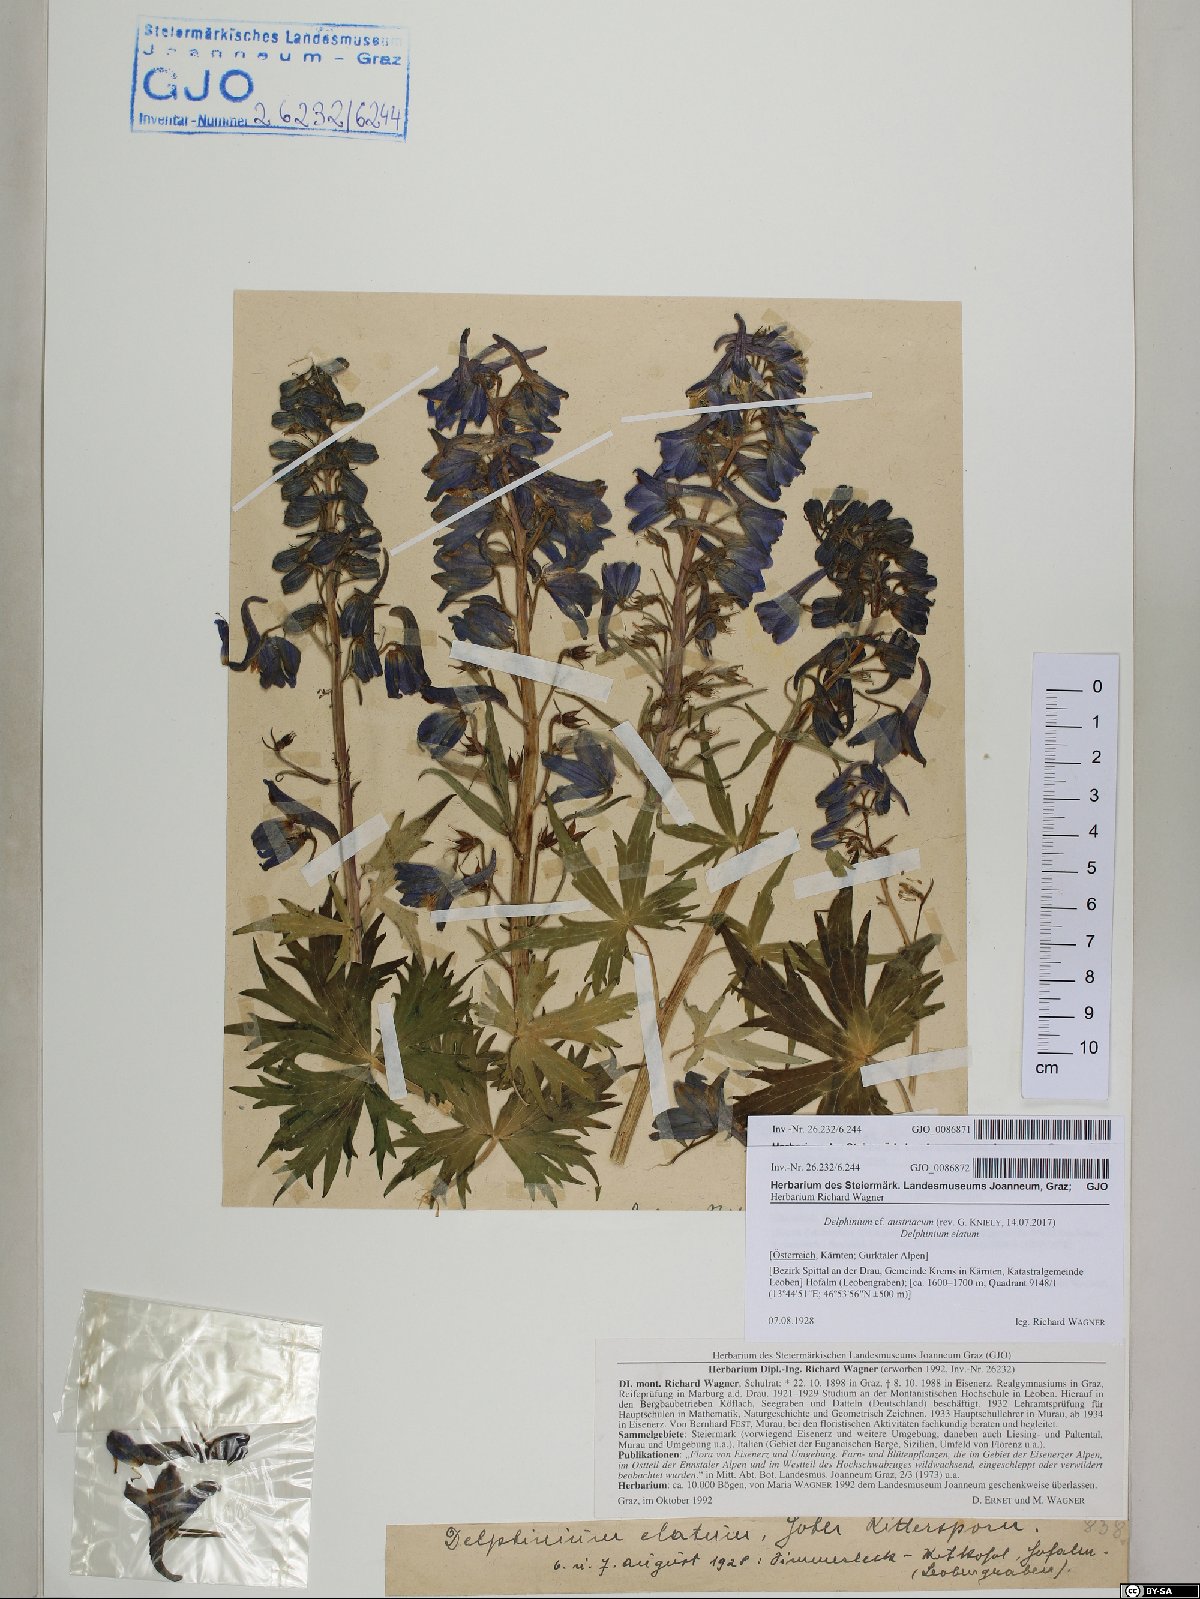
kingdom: Plantae
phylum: Tracheophyta
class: Magnoliopsida
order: Ranunculales
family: Ranunculaceae
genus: Delphinium
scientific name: Delphinium austriacum
